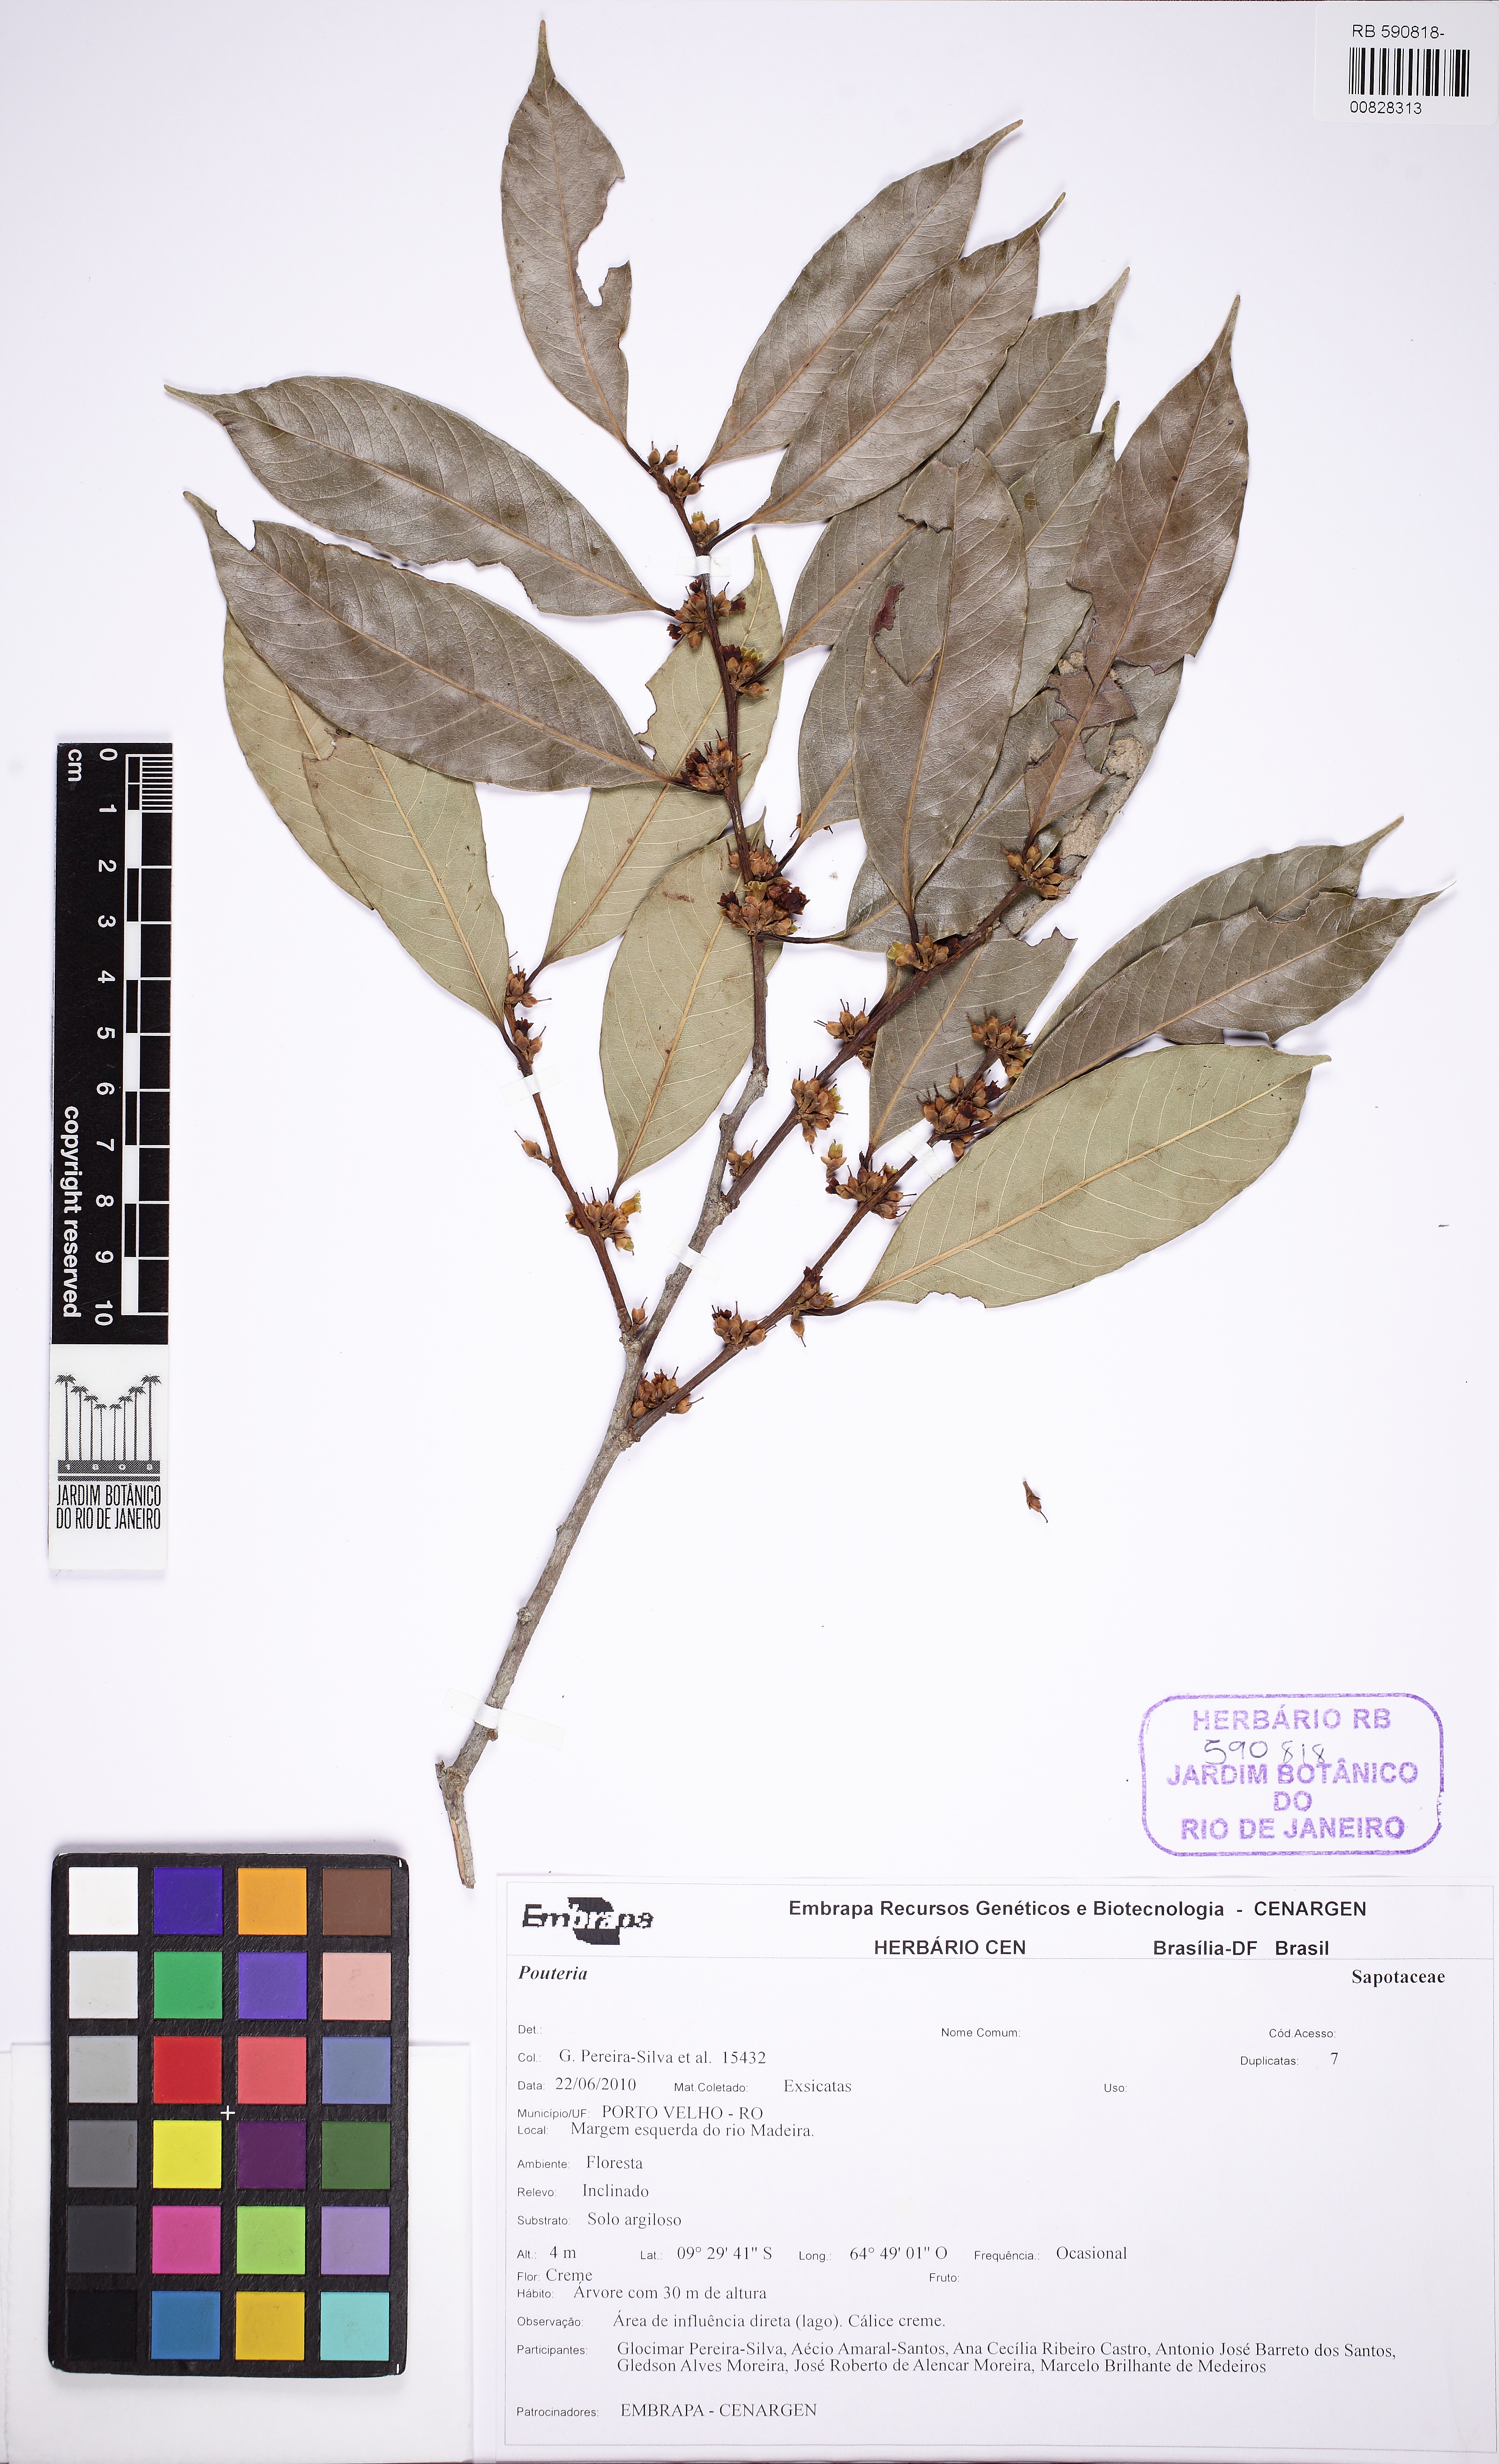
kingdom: Plantae
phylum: Tracheophyta
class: Magnoliopsida
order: Ericales
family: Sapotaceae
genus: Pouteria
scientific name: Pouteria procera
